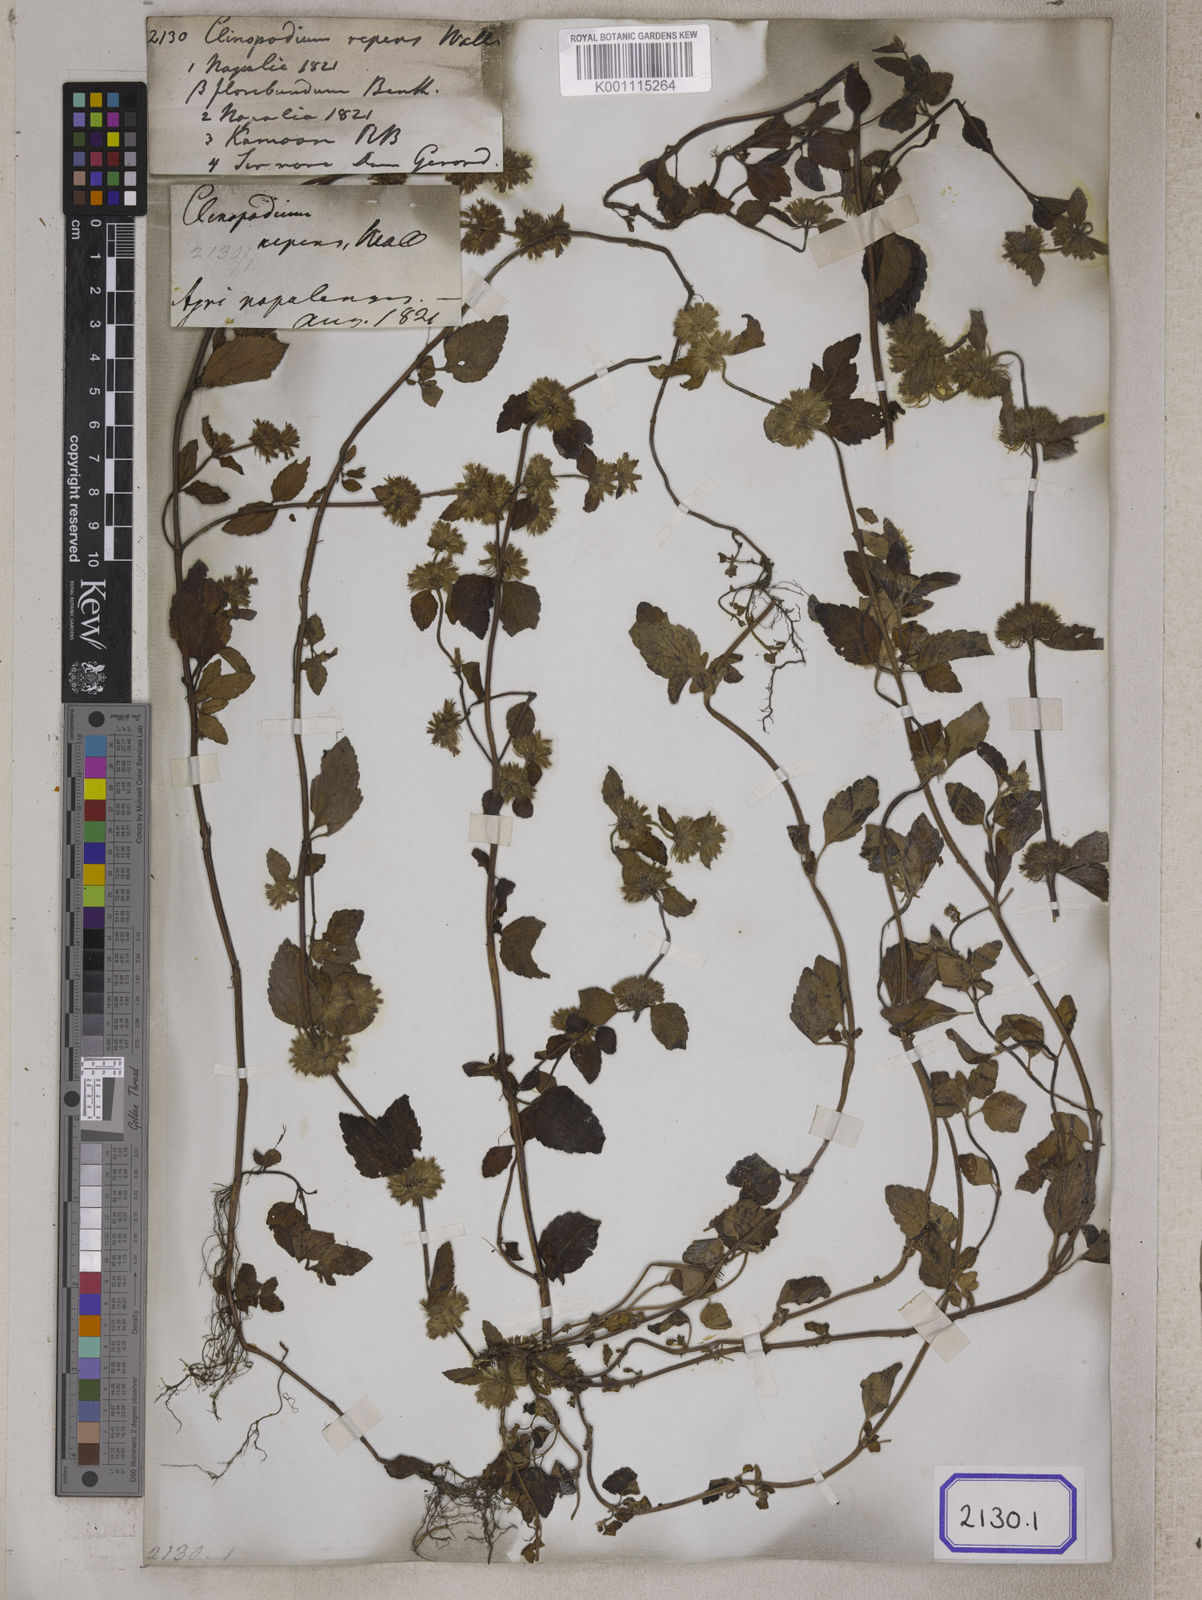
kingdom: Plantae
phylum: Tracheophyta
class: Magnoliopsida
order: Lamiales
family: Lamiaceae
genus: Clinopodium
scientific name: Clinopodium
